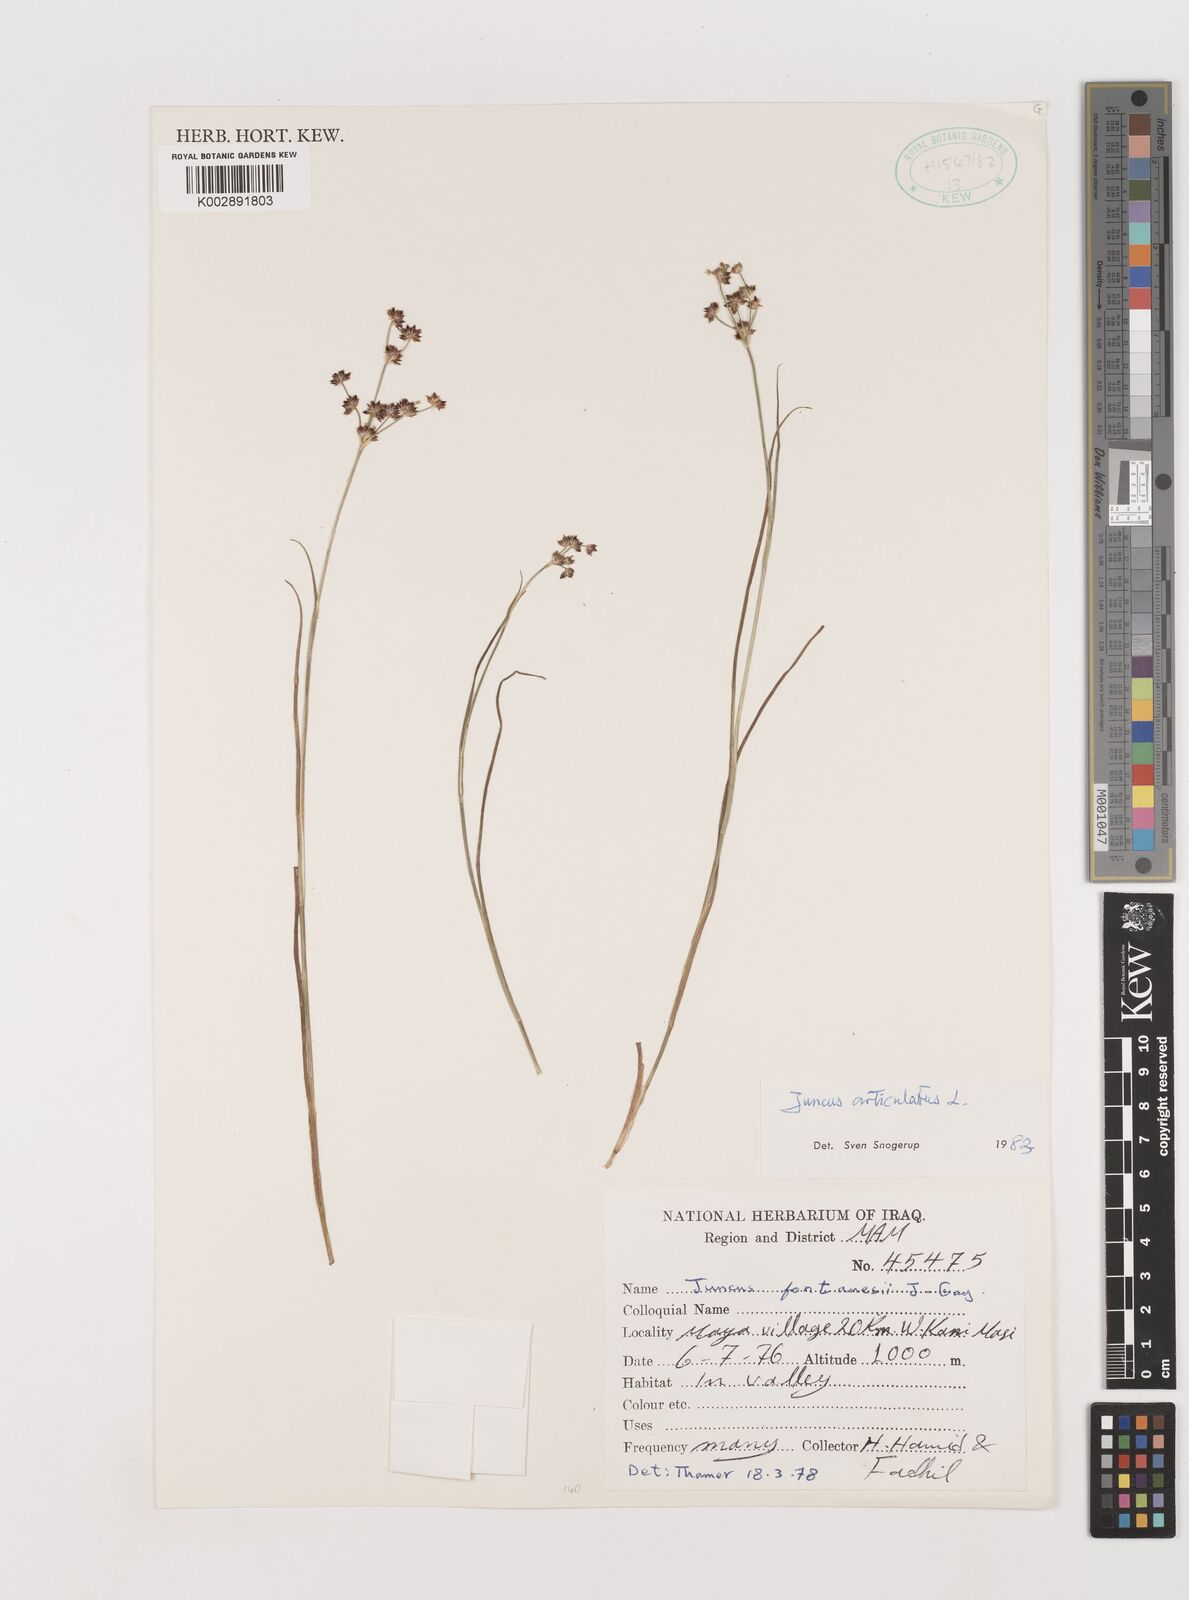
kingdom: Plantae
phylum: Tracheophyta
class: Liliopsida
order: Poales
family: Juncaceae
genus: Juncus
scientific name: Juncus articulatus
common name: Jointed rush
